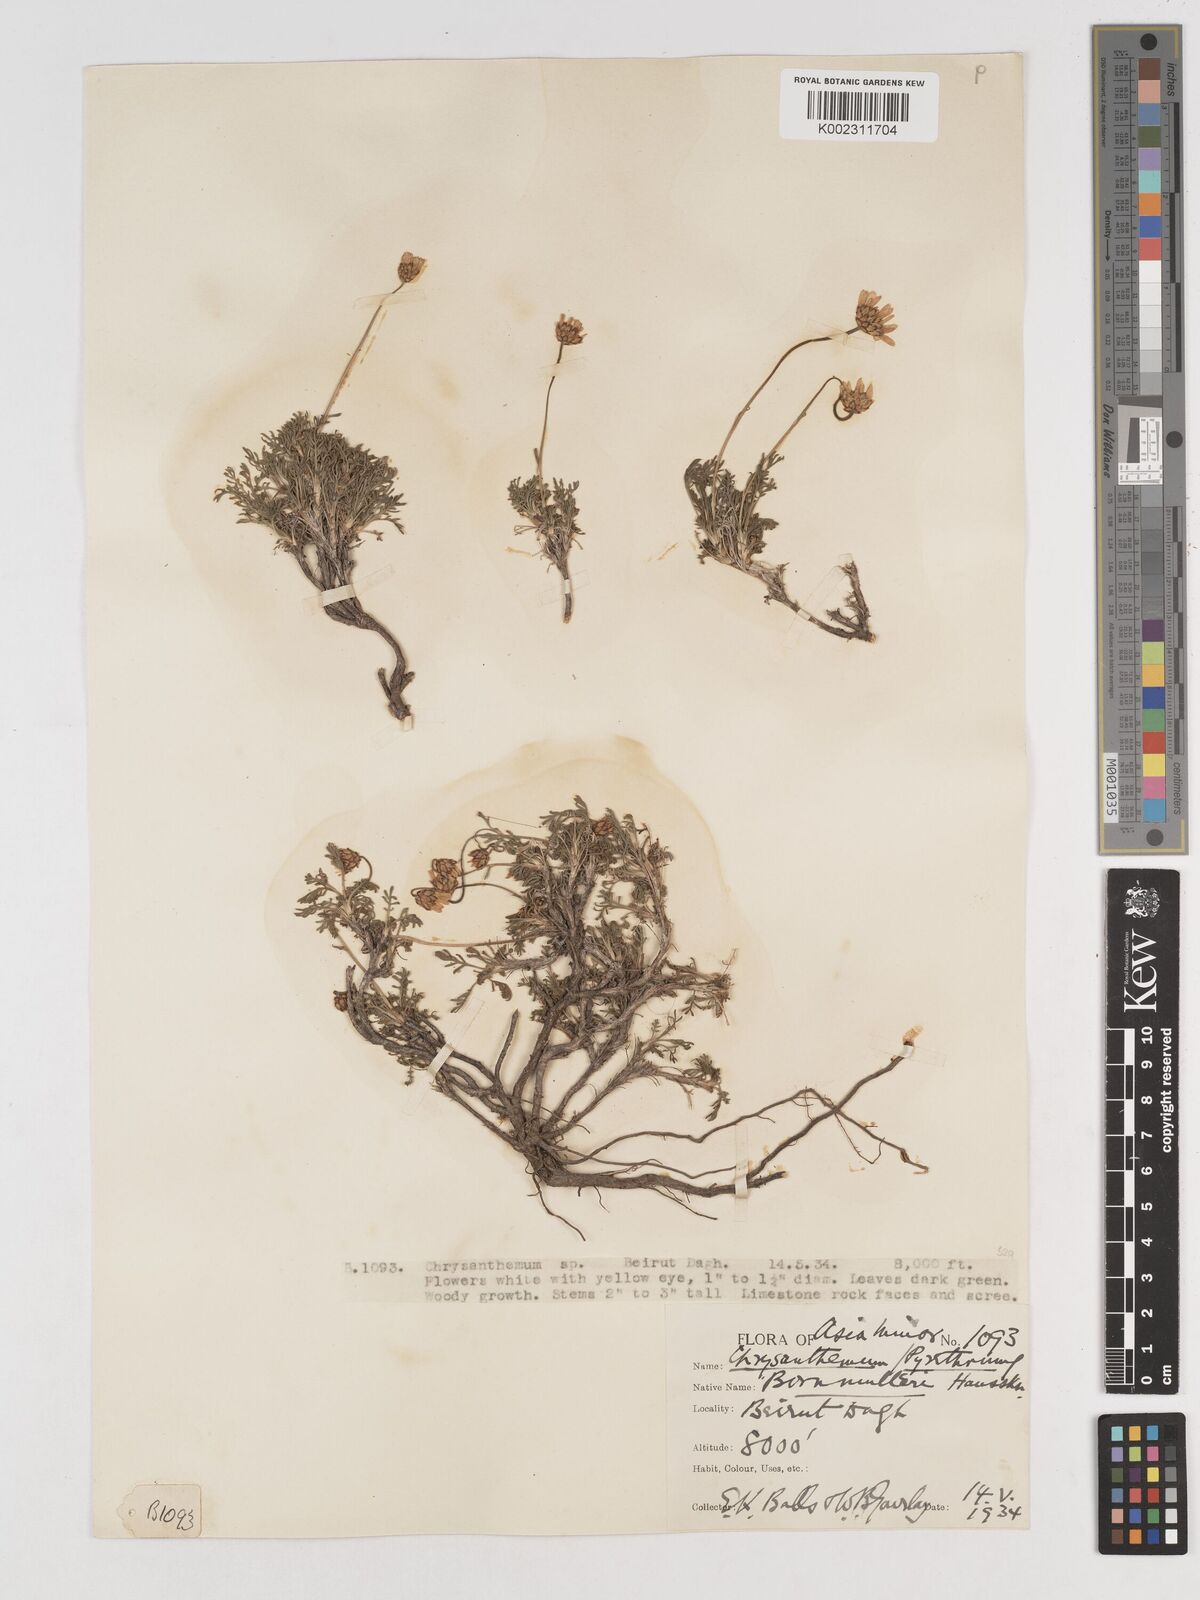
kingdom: Plantae
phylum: Tracheophyta
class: Magnoliopsida
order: Asterales
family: Asteraceae
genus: Tanacetum
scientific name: Tanacetum coccineum
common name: Pyrethum daisy
